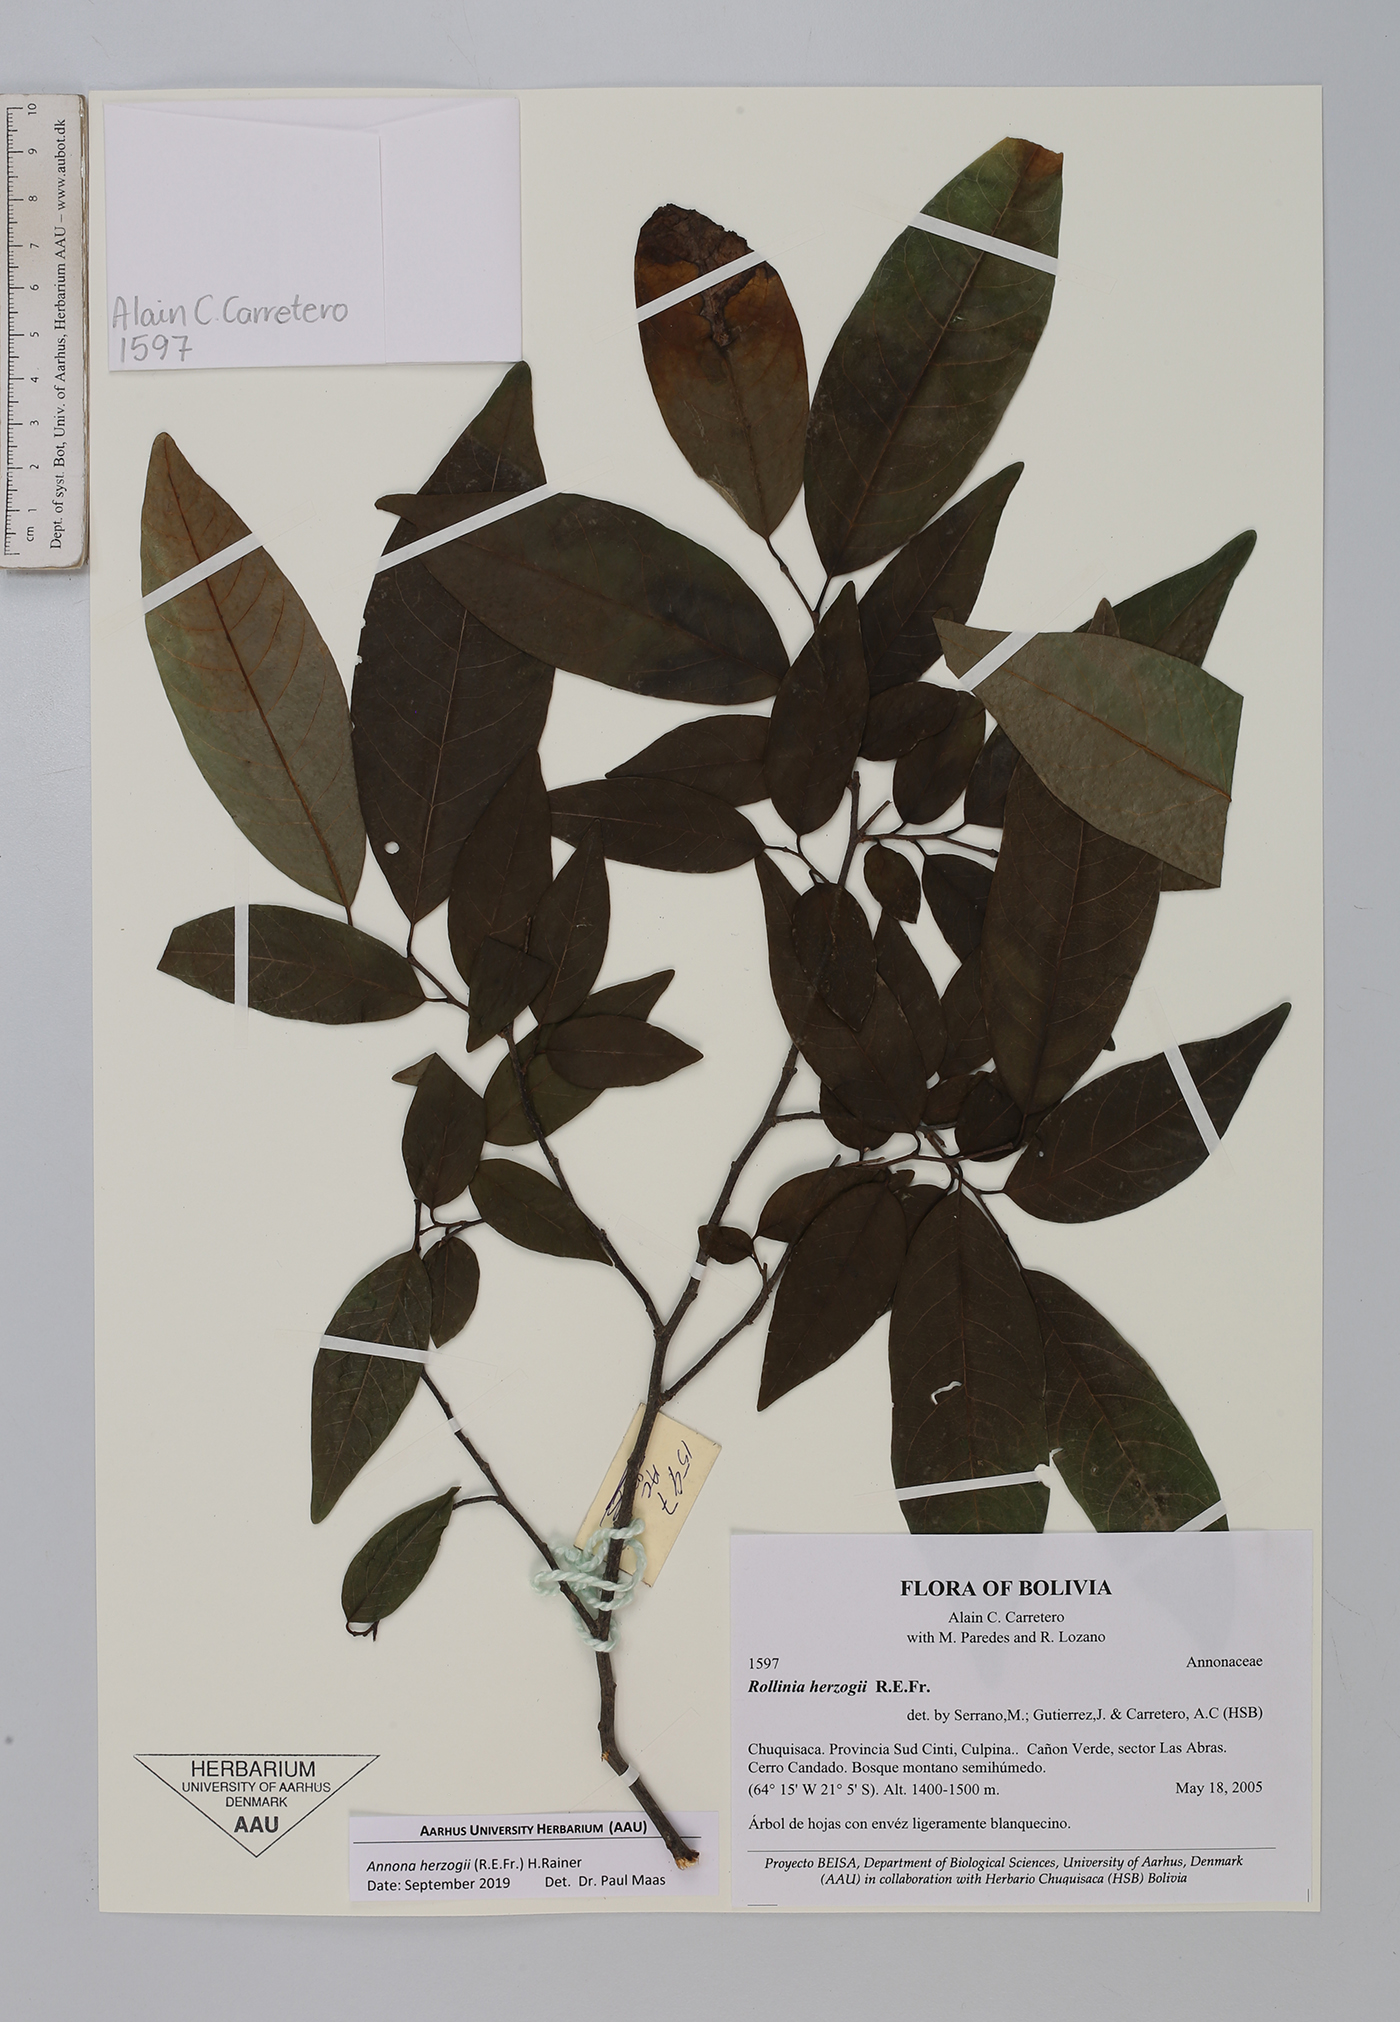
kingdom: Plantae
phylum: Tracheophyta
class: Magnoliopsida
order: Magnoliales
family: Annonaceae
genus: Annona
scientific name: Annona herzogii
